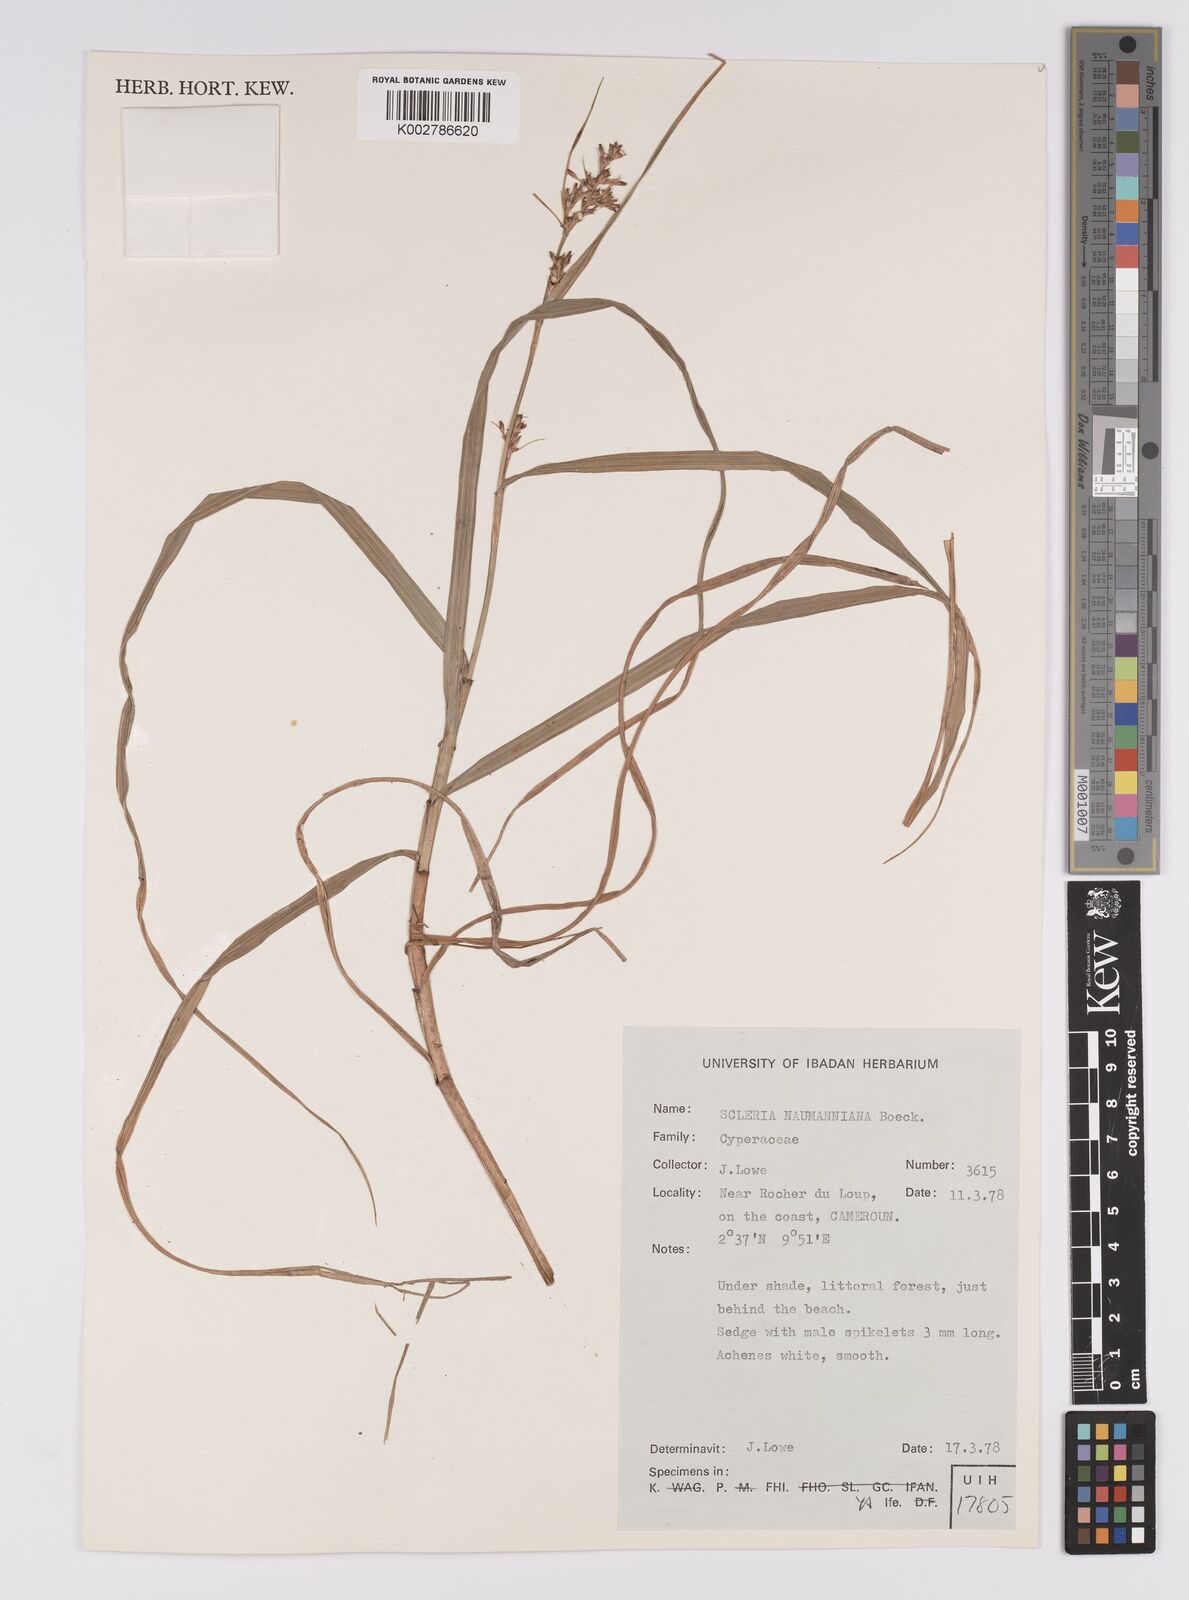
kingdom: Plantae
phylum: Tracheophyta
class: Liliopsida
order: Poales
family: Cyperaceae
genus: Scleria
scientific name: Scleria naumanniana
